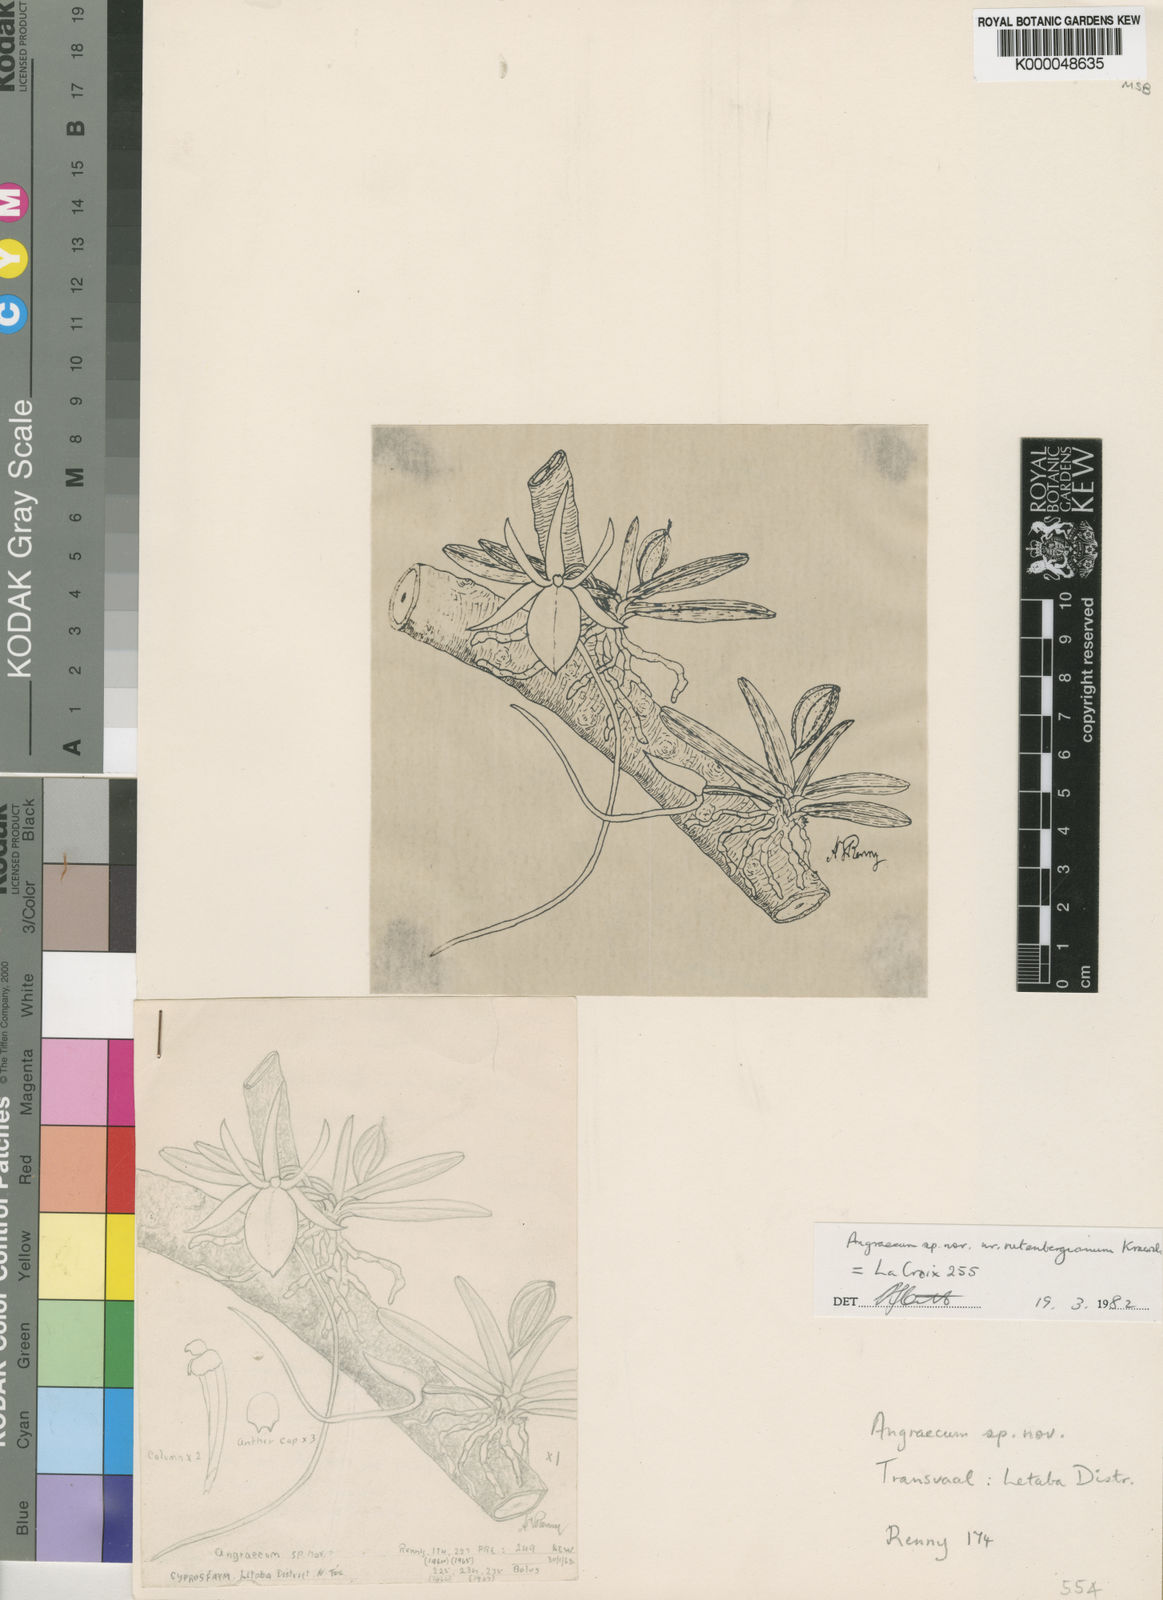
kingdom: Plantae
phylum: Tracheophyta
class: Liliopsida
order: Asparagales
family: Orchidaceae
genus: Angraecum
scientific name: Angraecum stella-africae
